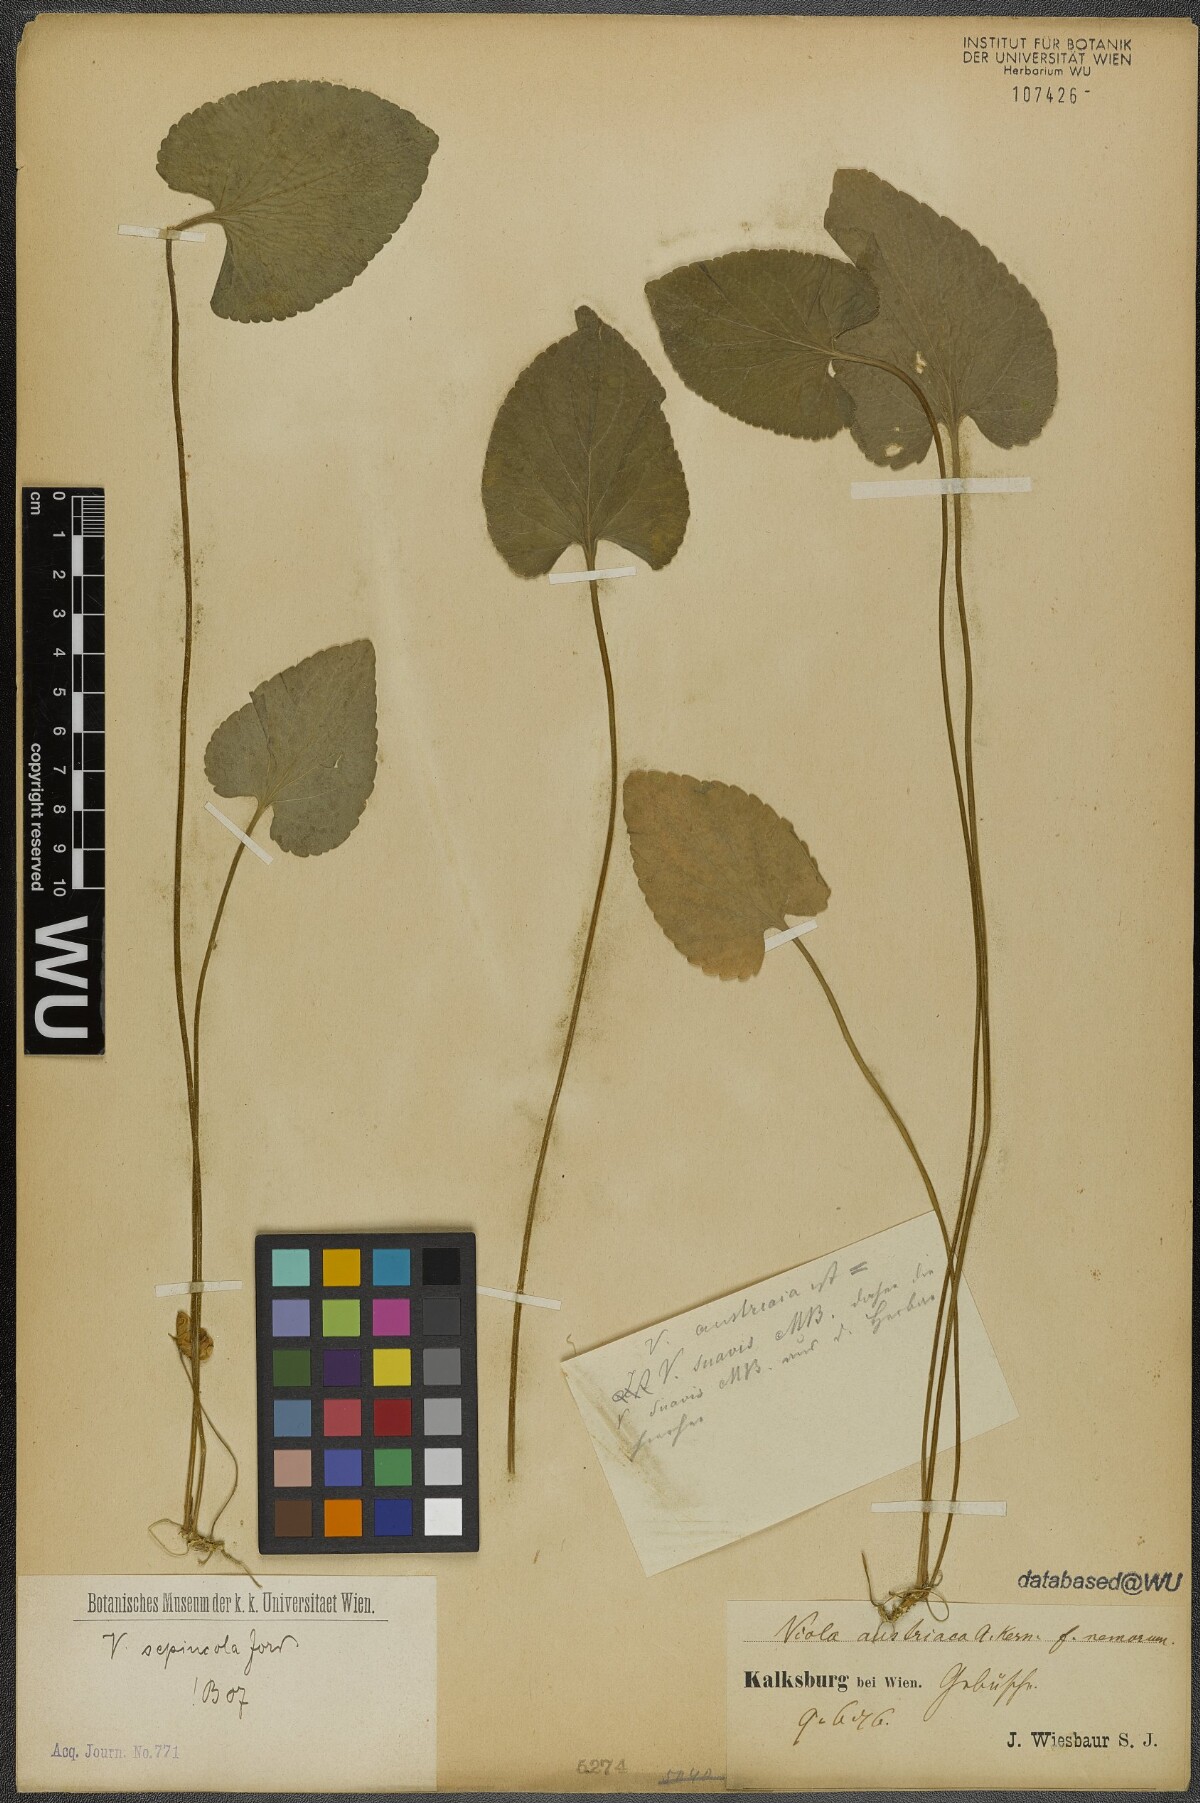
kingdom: Plantae
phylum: Tracheophyta
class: Magnoliopsida
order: Malpighiales
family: Violaceae
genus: Viola
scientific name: Viola suavis
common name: Russian violet
